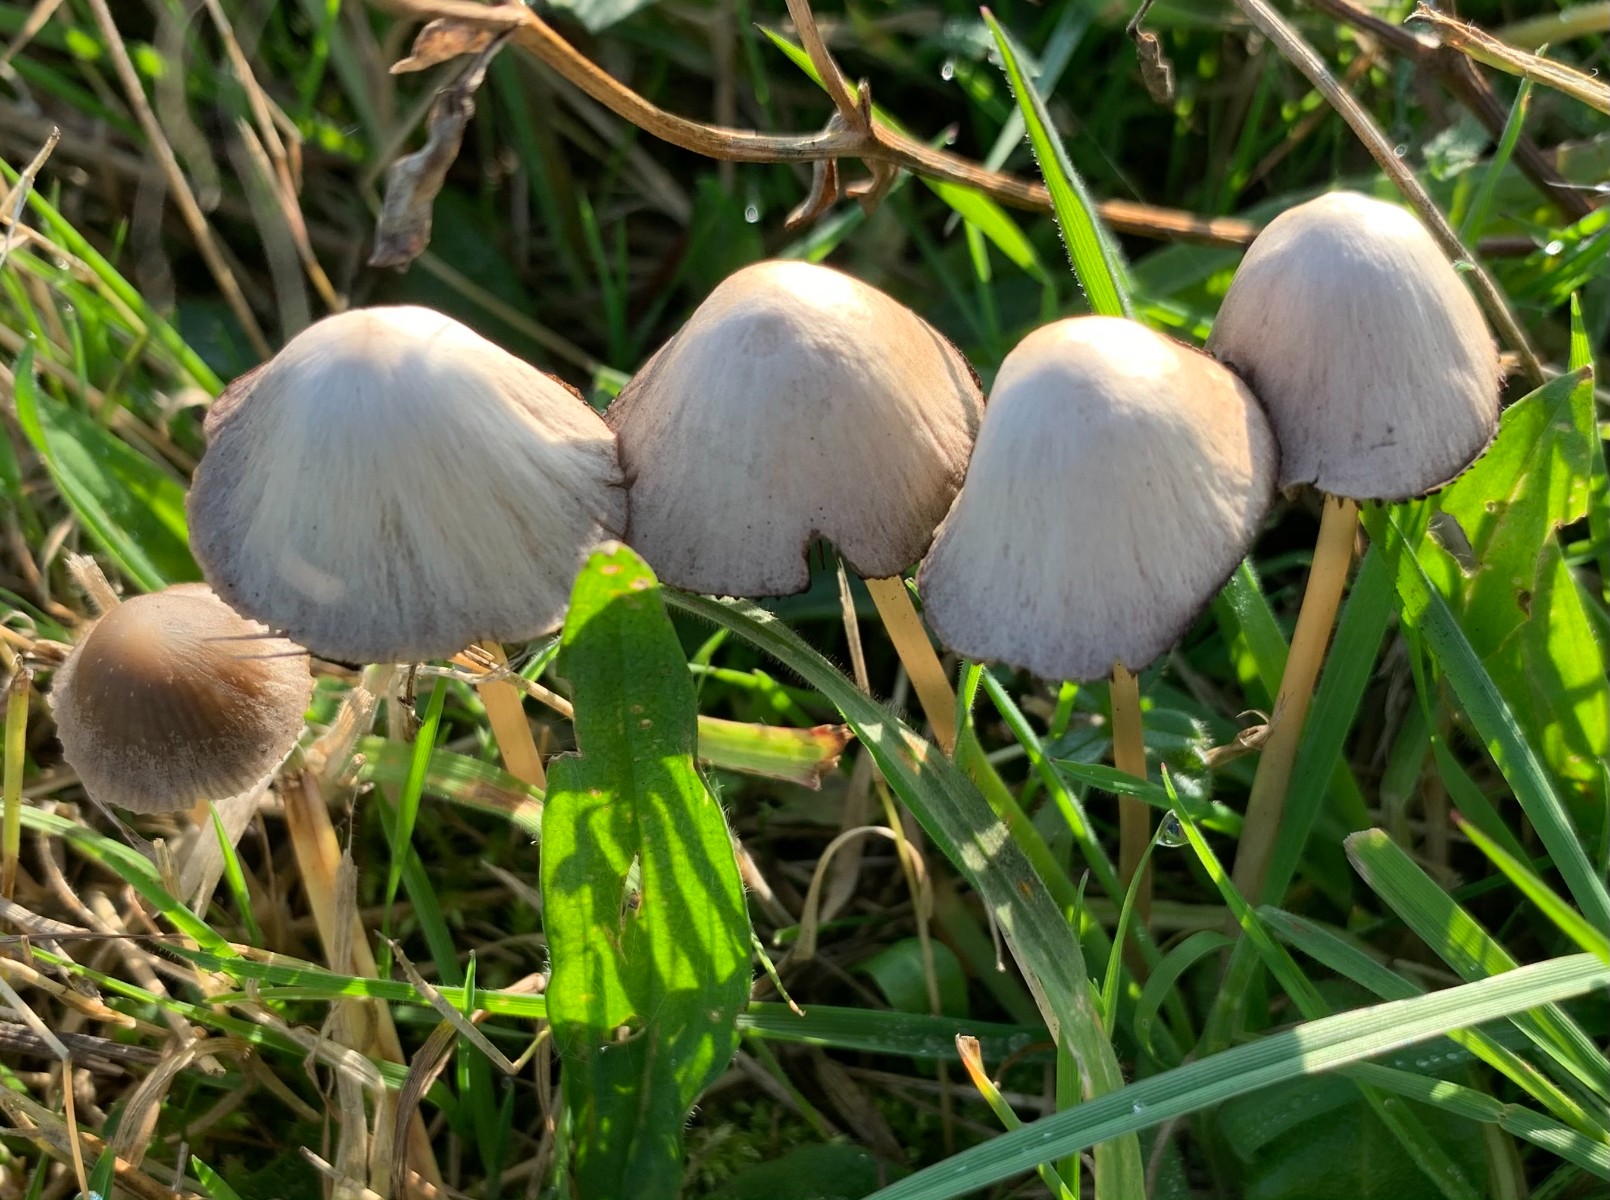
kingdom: Fungi
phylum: Basidiomycota
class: Agaricomycetes
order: Agaricales
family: Psathyrellaceae
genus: Psathyrella
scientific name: Psathyrella
